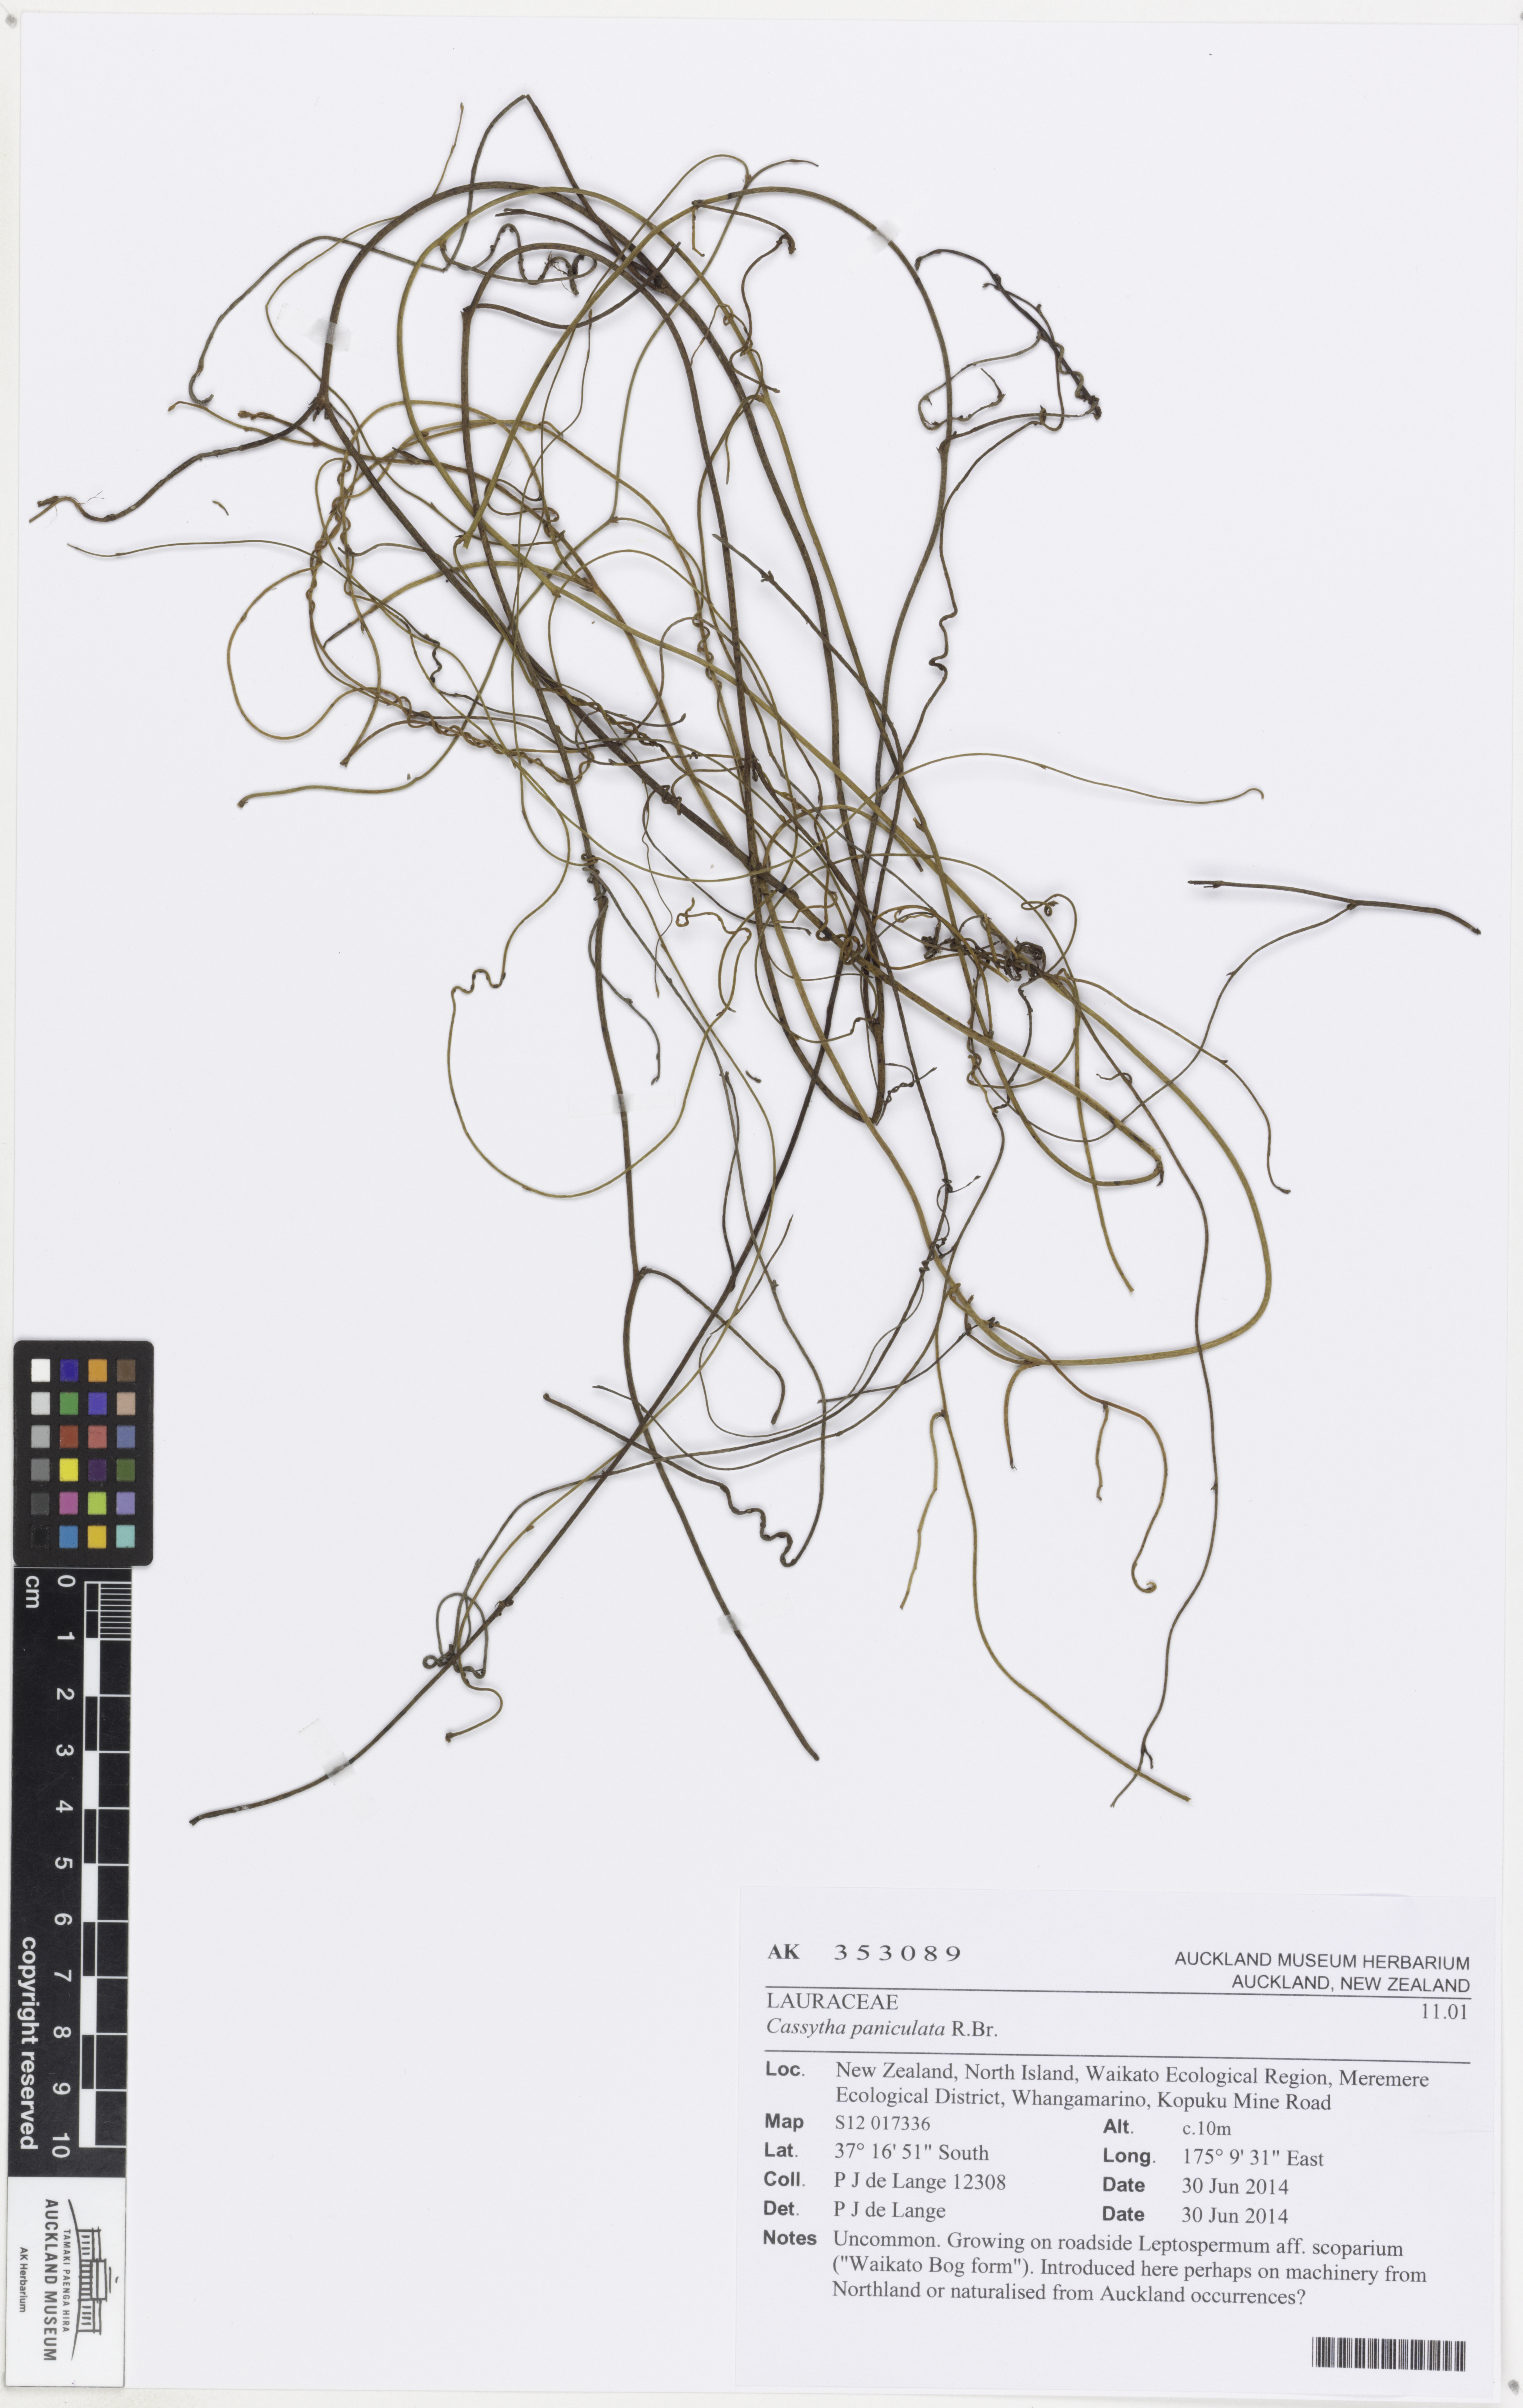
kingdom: Plantae
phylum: Tracheophyta
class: Magnoliopsida
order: Laurales
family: Lauraceae
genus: Cassytha
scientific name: Cassytha paniculata
